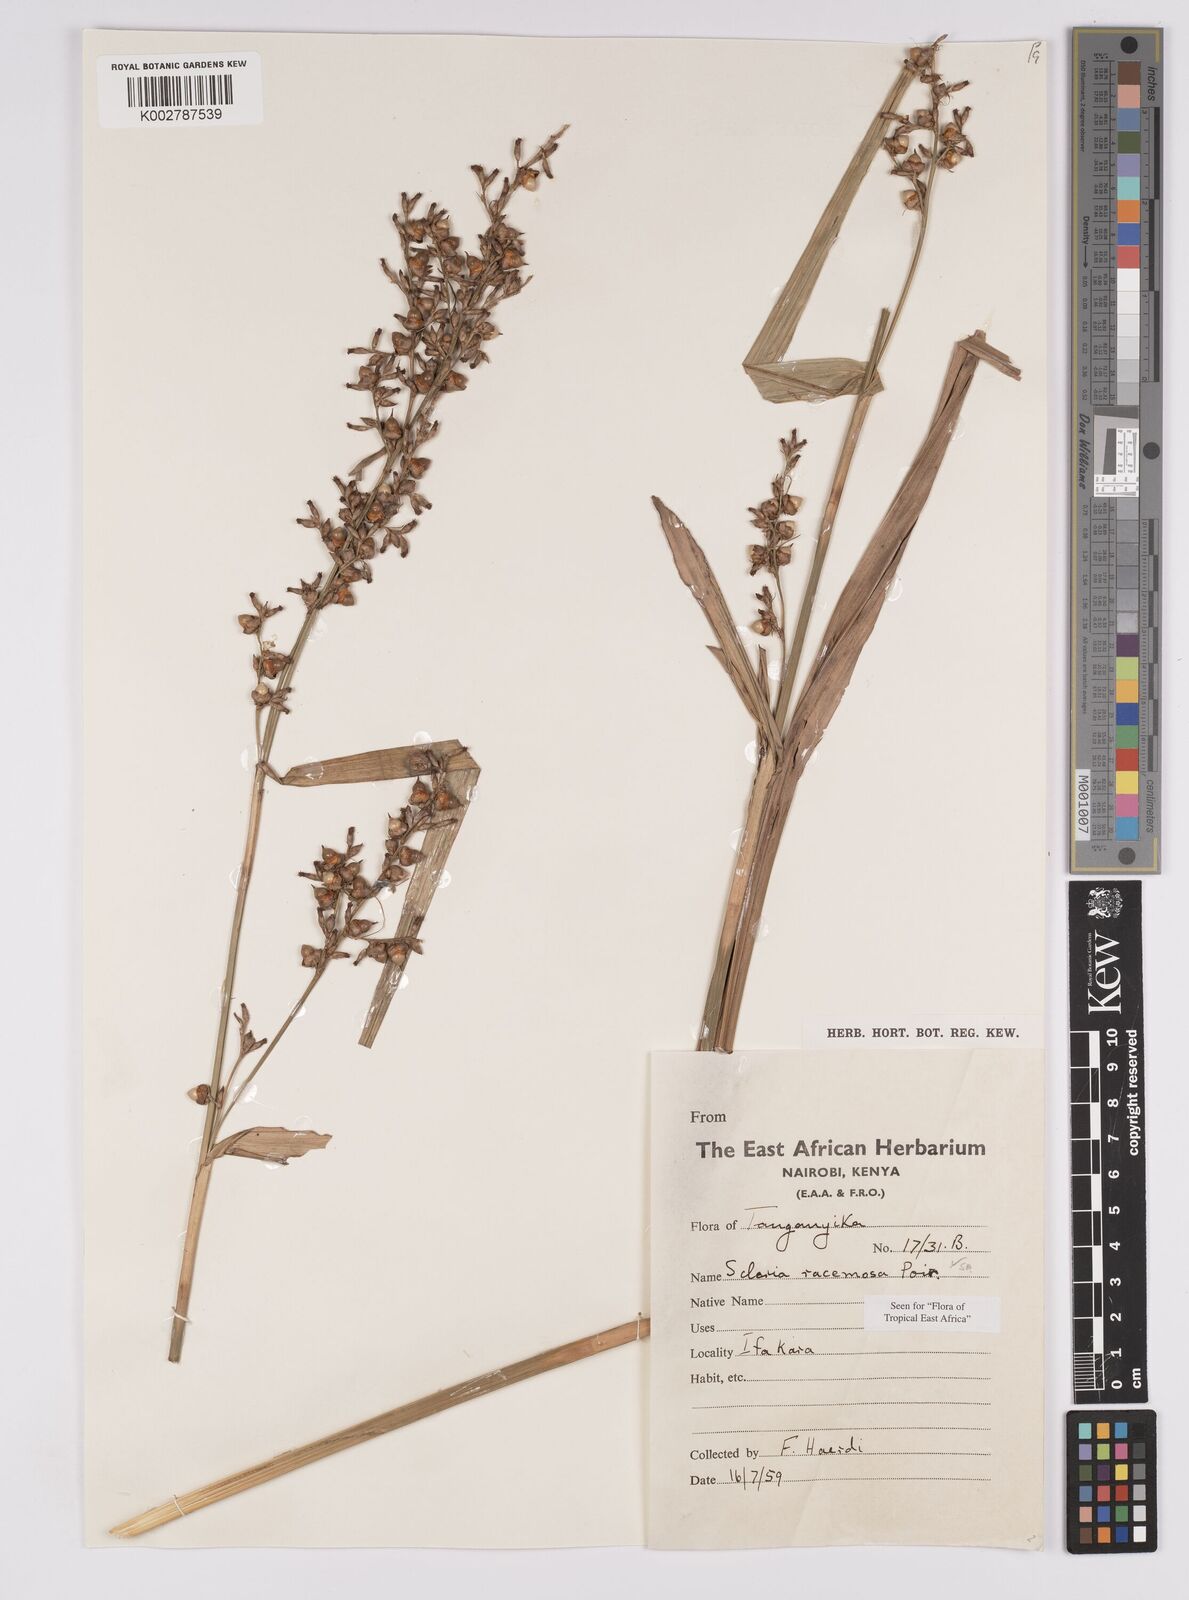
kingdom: Plantae
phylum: Tracheophyta
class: Liliopsida
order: Poales
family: Cyperaceae
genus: Scleria
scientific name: Scleria racemosa
